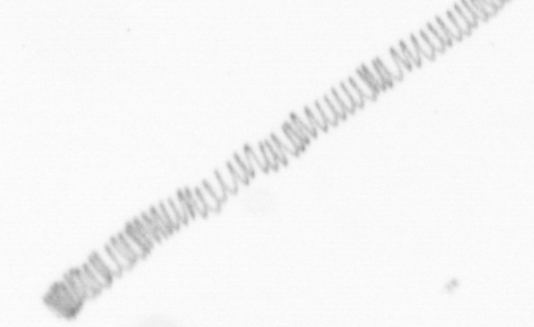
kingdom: Chromista
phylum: Ochrophyta
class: Bacillariophyceae
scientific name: Bacillariophyceae
